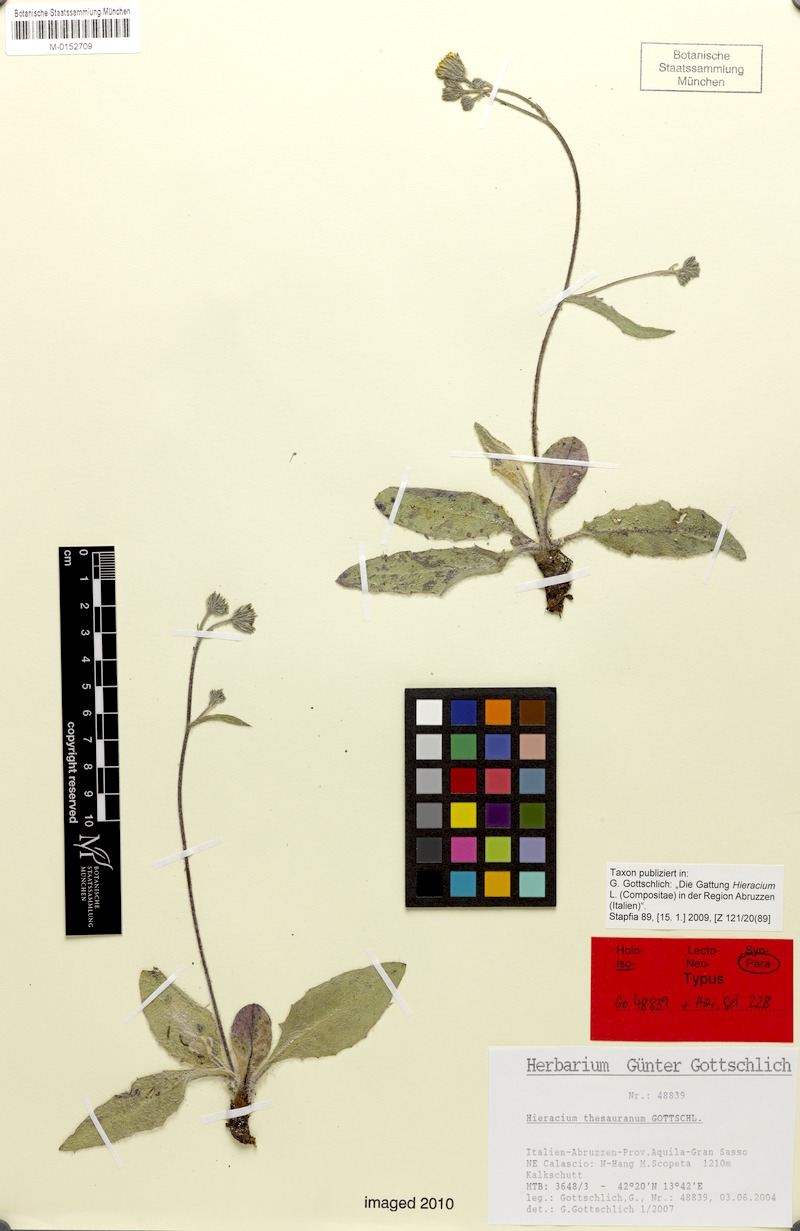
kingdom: Plantae
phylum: Tracheophyta
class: Magnoliopsida
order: Asterales
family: Asteraceae
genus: Hieracium
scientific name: Hieracium thesauranum
